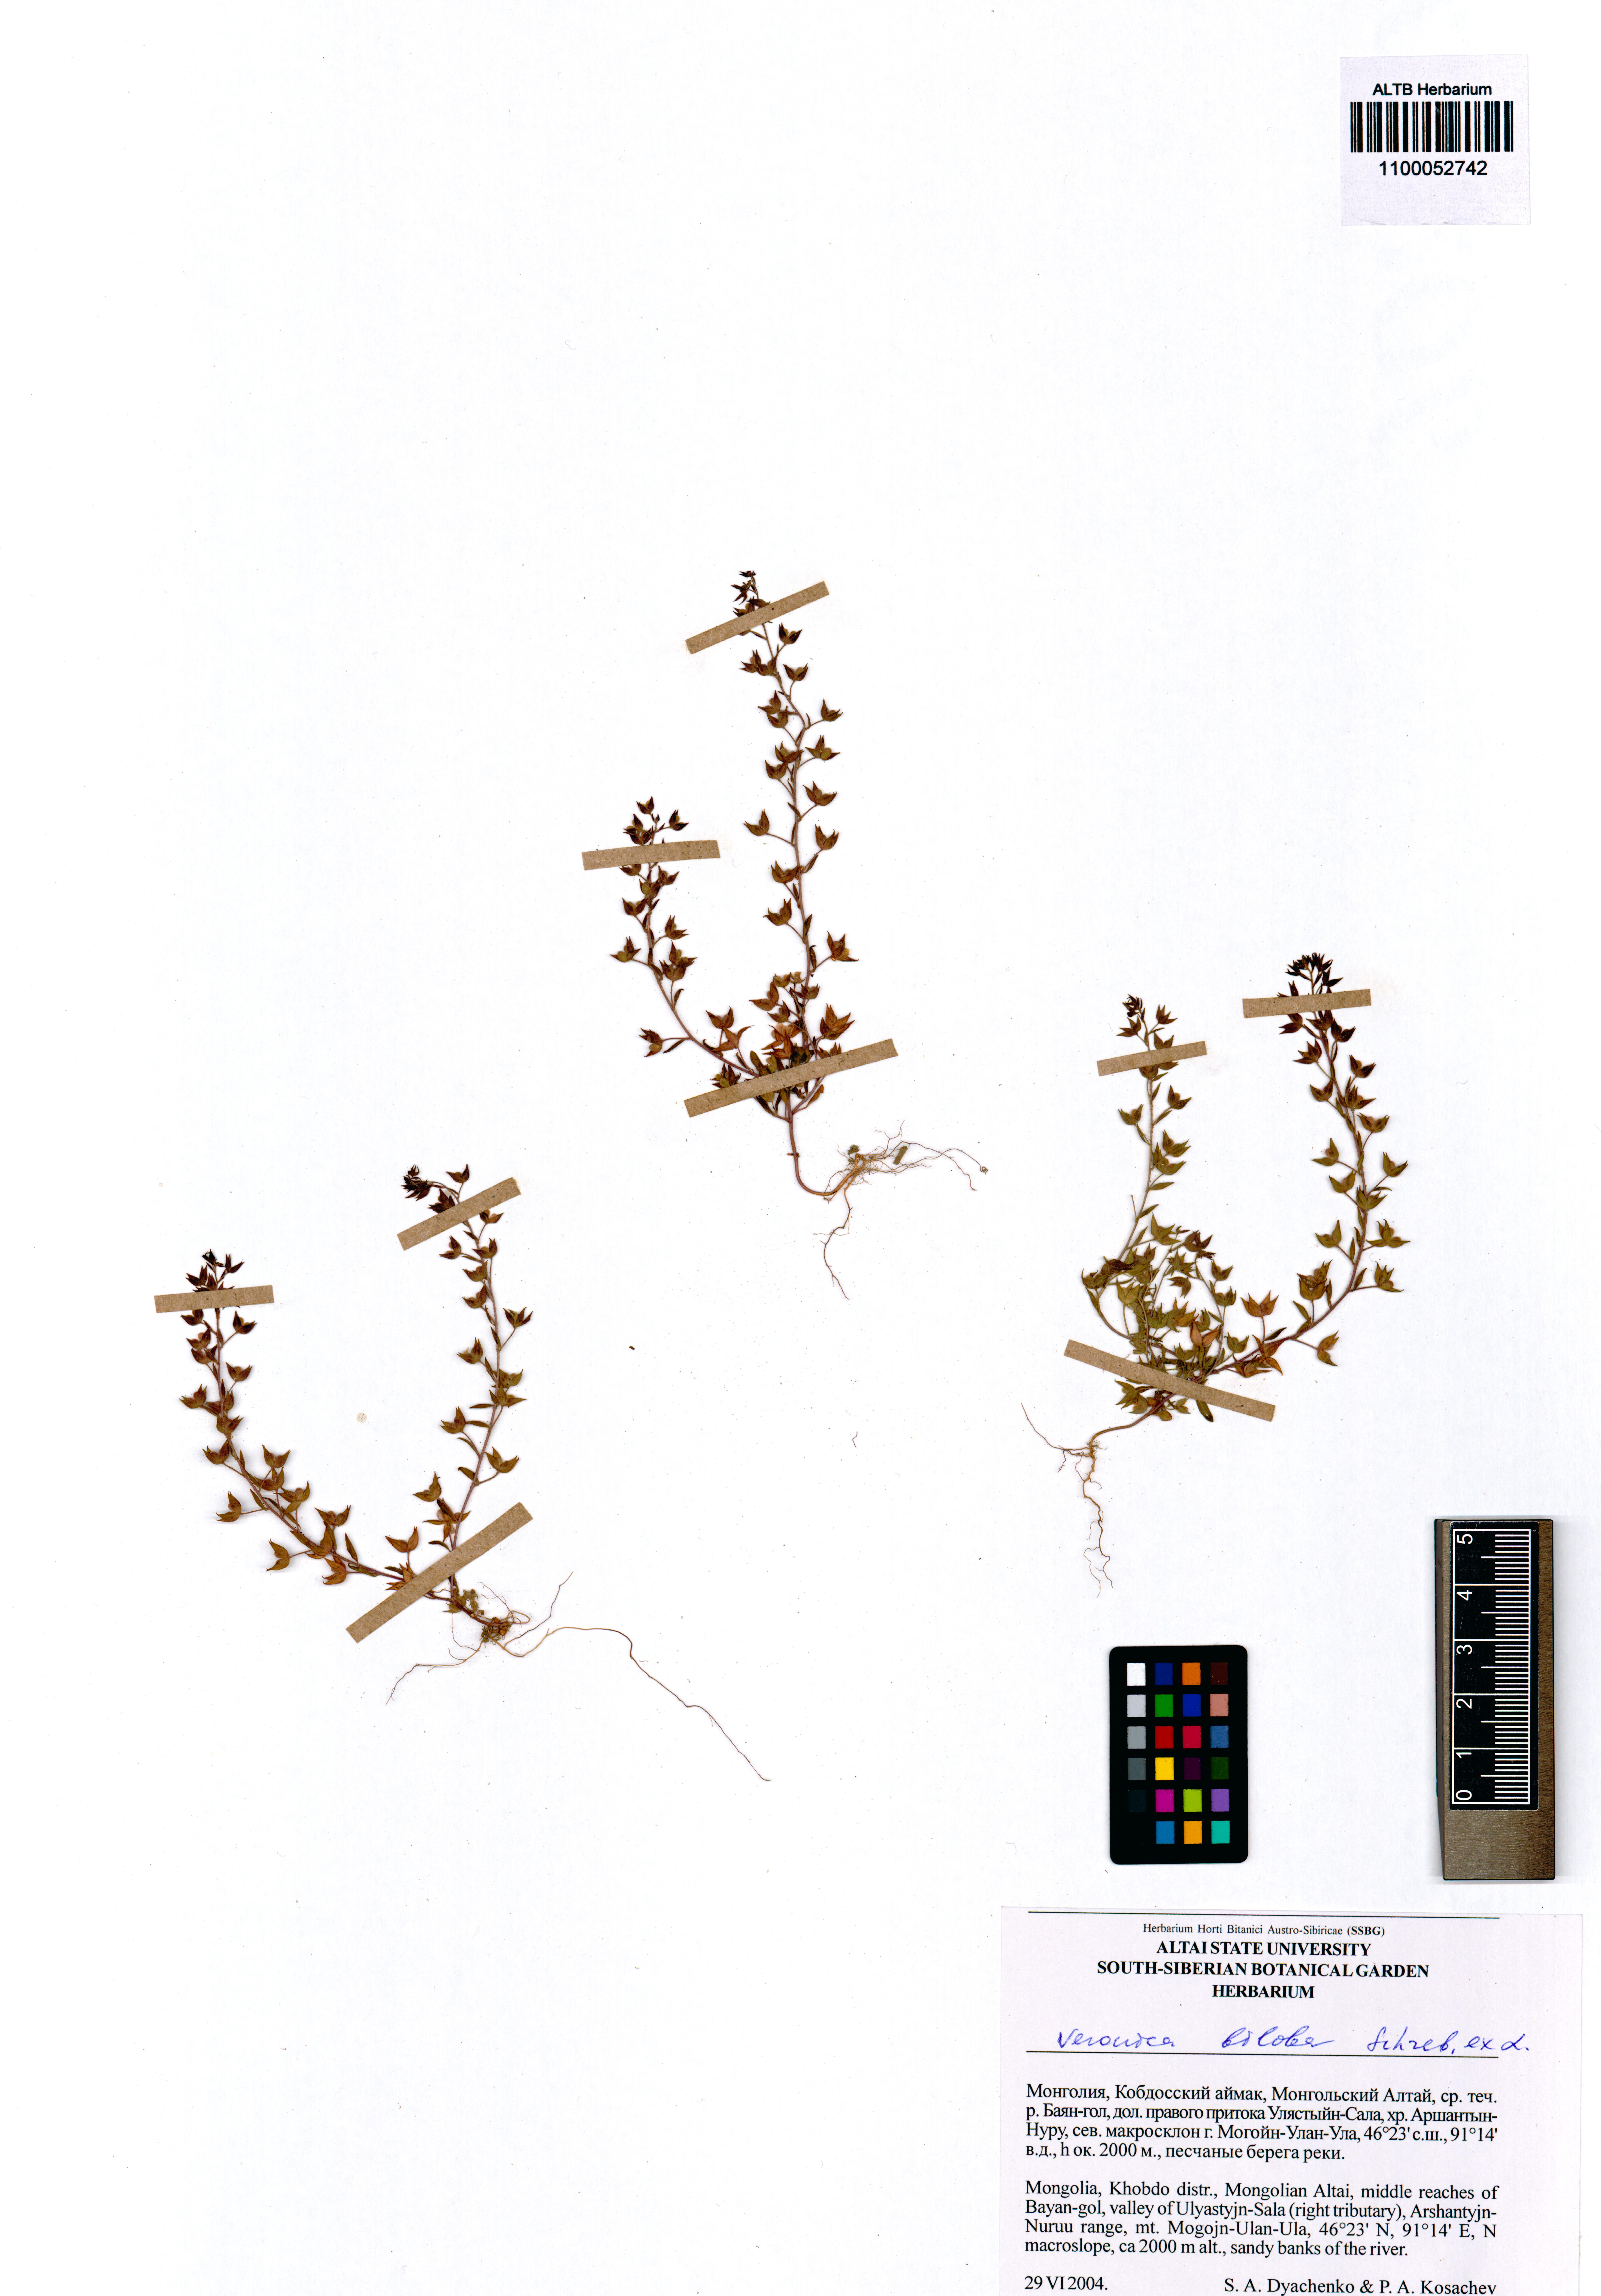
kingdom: Plantae
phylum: Tracheophyta
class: Magnoliopsida
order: Lamiales
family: Plantaginaceae
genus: Veronica
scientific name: Veronica biloba
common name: Twolobe speedwell
